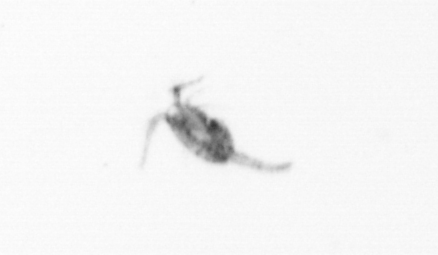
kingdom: Animalia
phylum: Arthropoda
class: Copepoda
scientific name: Copepoda
